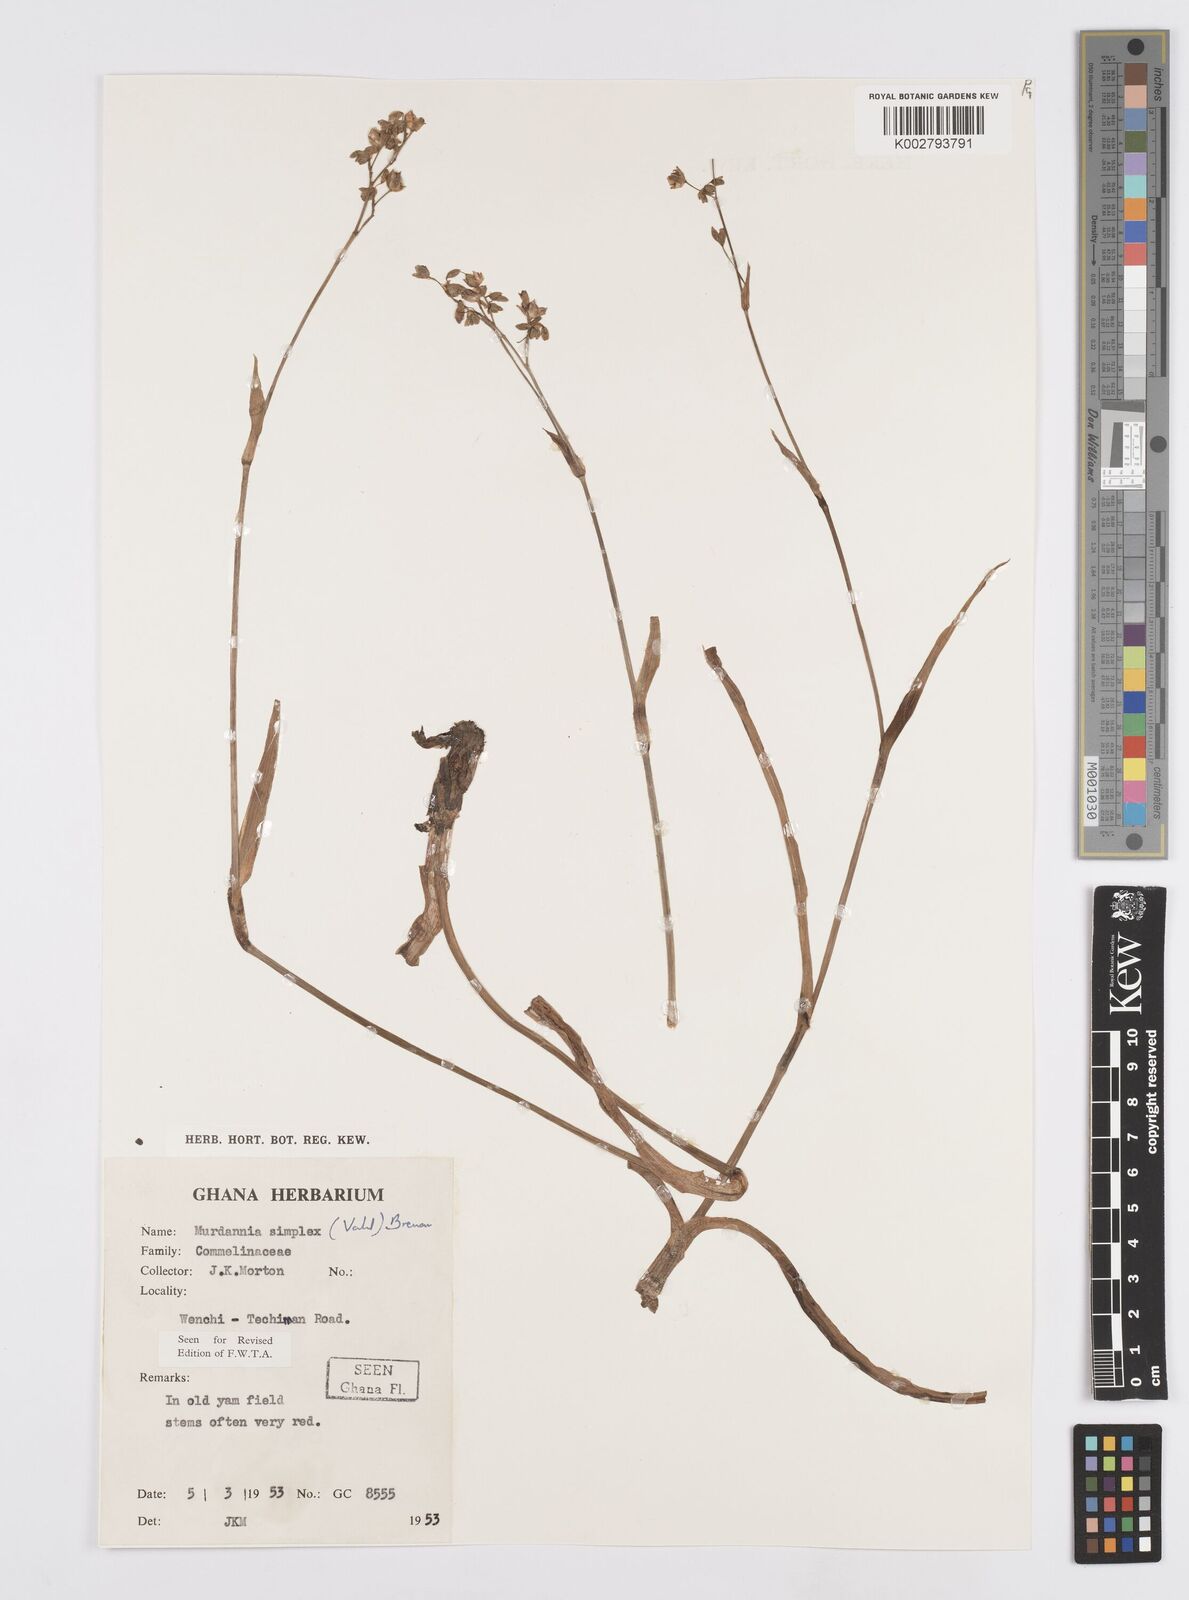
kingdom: Plantae
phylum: Tracheophyta
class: Liliopsida
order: Commelinales
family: Commelinaceae
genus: Murdannia
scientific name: Murdannia simplex
